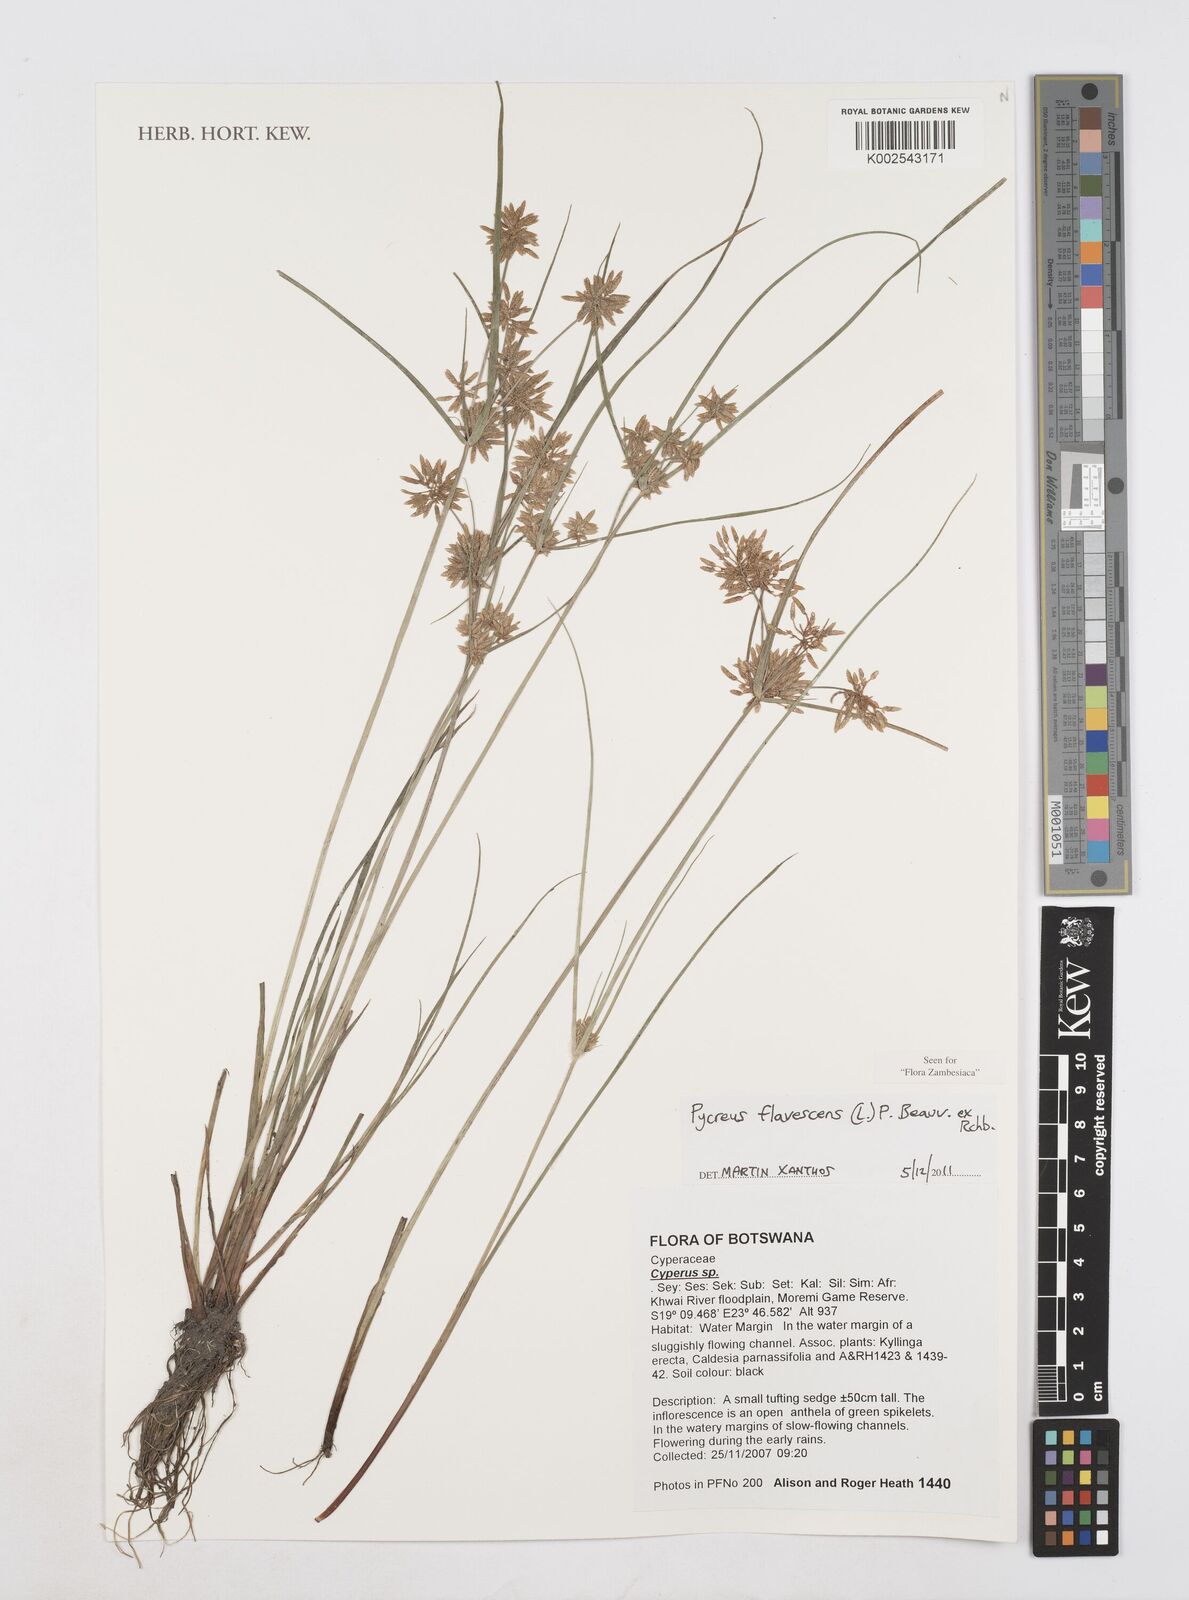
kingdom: Plantae
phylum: Tracheophyta
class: Liliopsida
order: Poales
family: Cyperaceae
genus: Cyperus
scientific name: Cyperus flavescens
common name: Yellow galingale
